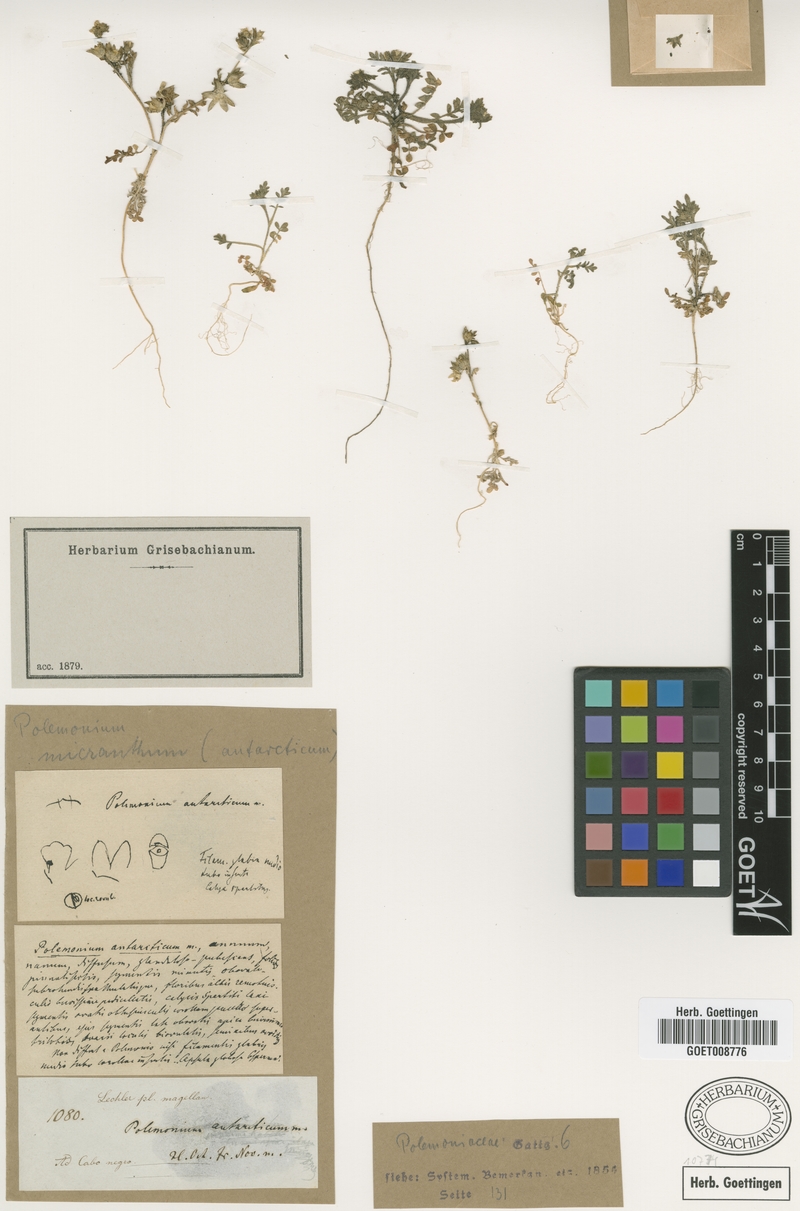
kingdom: Plantae
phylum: Tracheophyta
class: Magnoliopsida
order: Ericales
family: Polemoniaceae
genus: Polemonium
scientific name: Polemonium micranthum
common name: Annual jacob's-ladder
